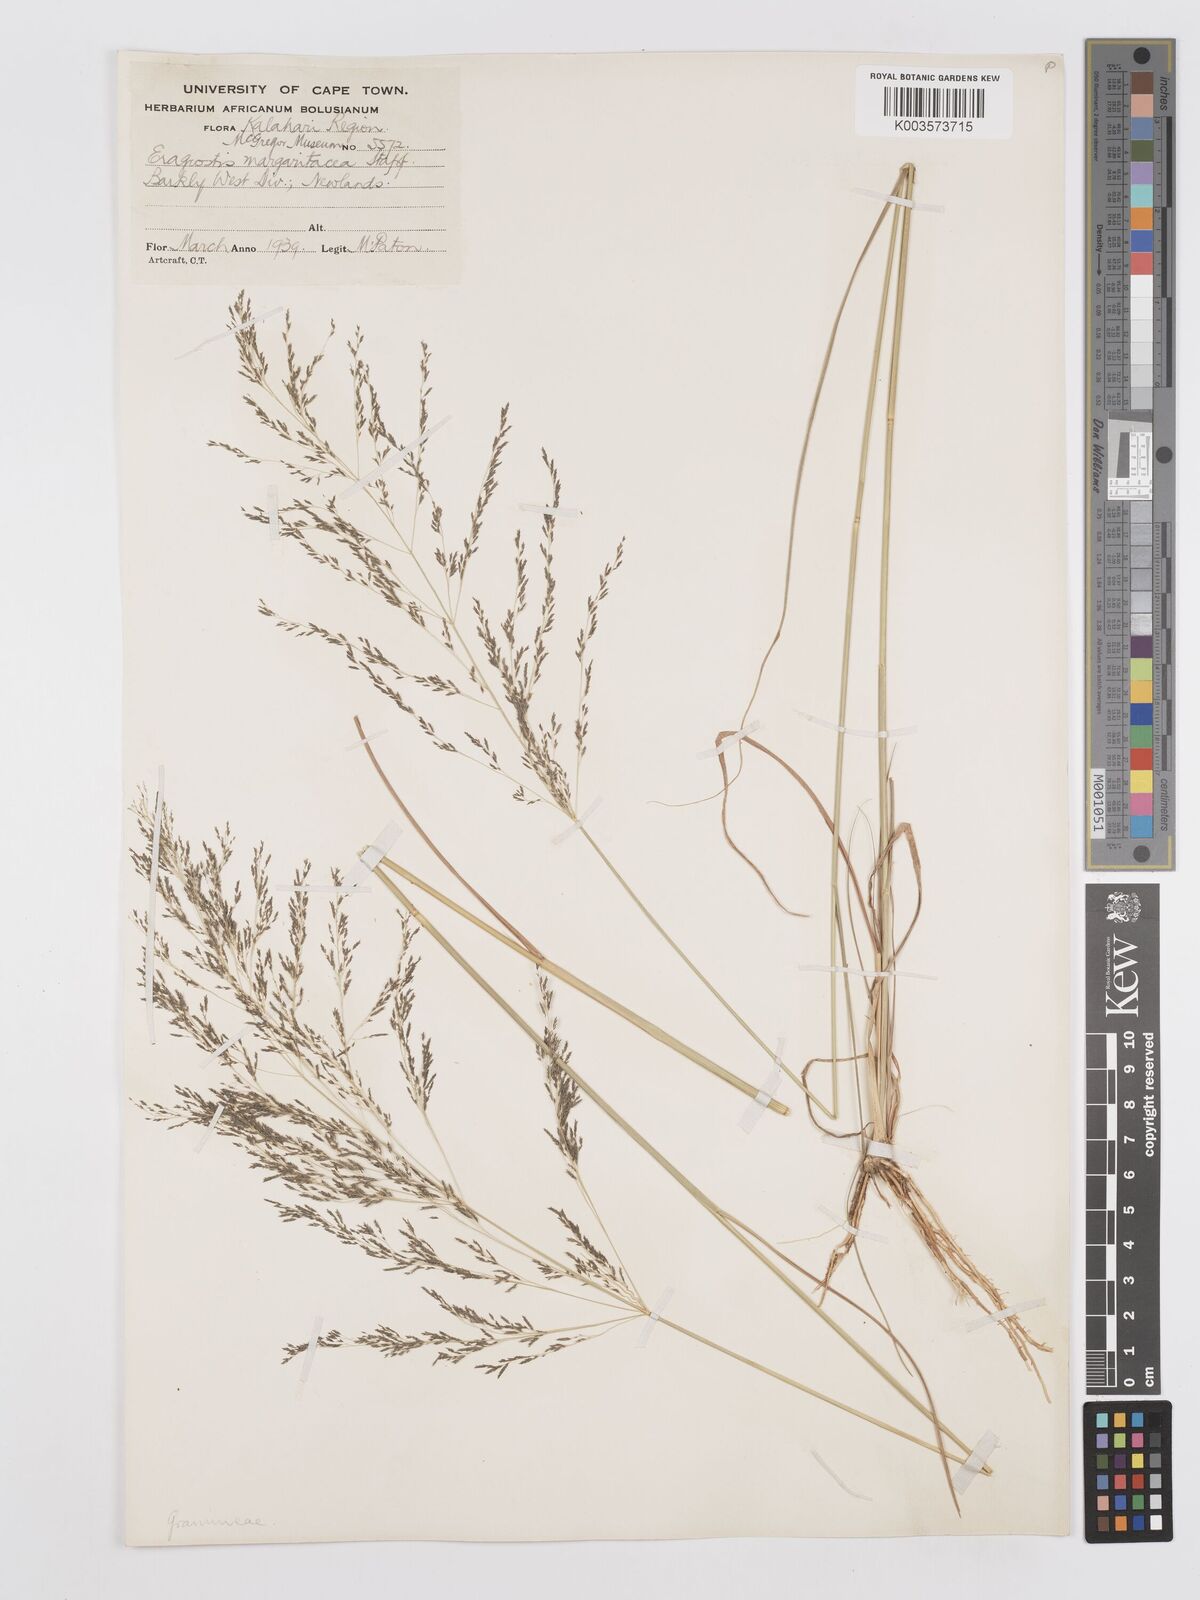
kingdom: Plantae
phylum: Tracheophyta
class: Liliopsida
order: Poales
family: Poaceae
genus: Eragrostis
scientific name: Eragrostis rotifer
